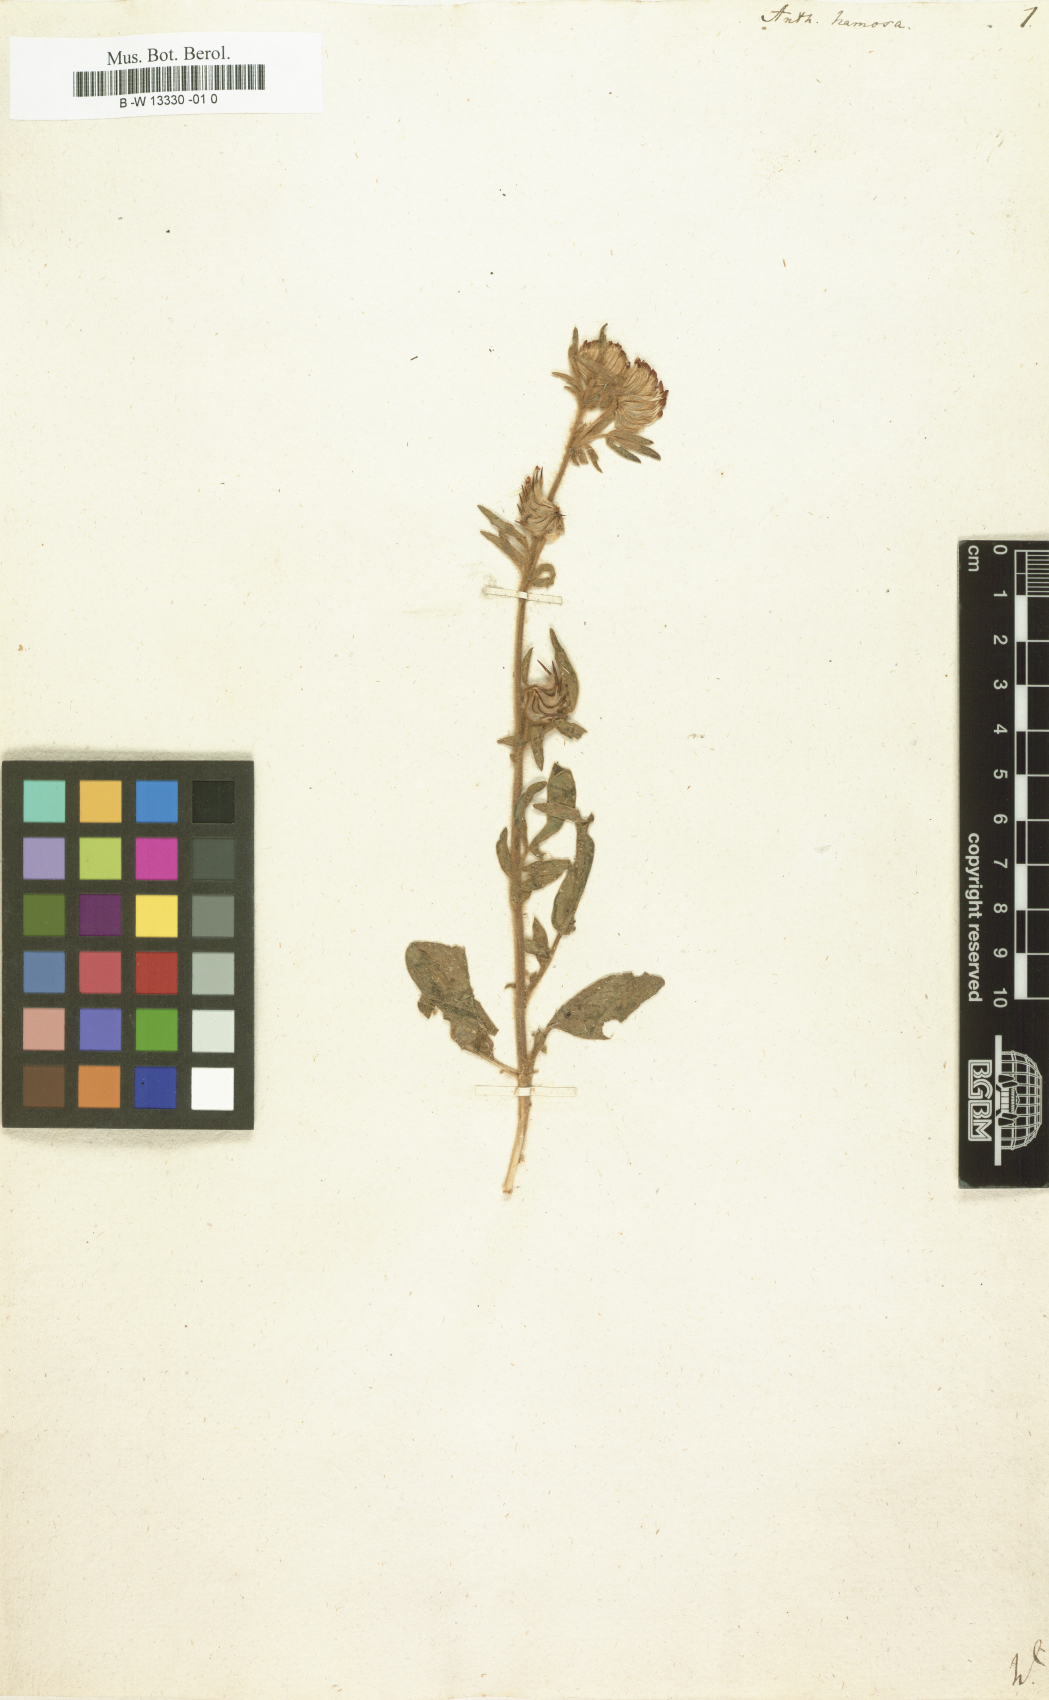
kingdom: Plantae
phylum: Tracheophyta
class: Magnoliopsida
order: Fabales
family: Fabaceae
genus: Anthyllis
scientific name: Anthyllis hamosa
